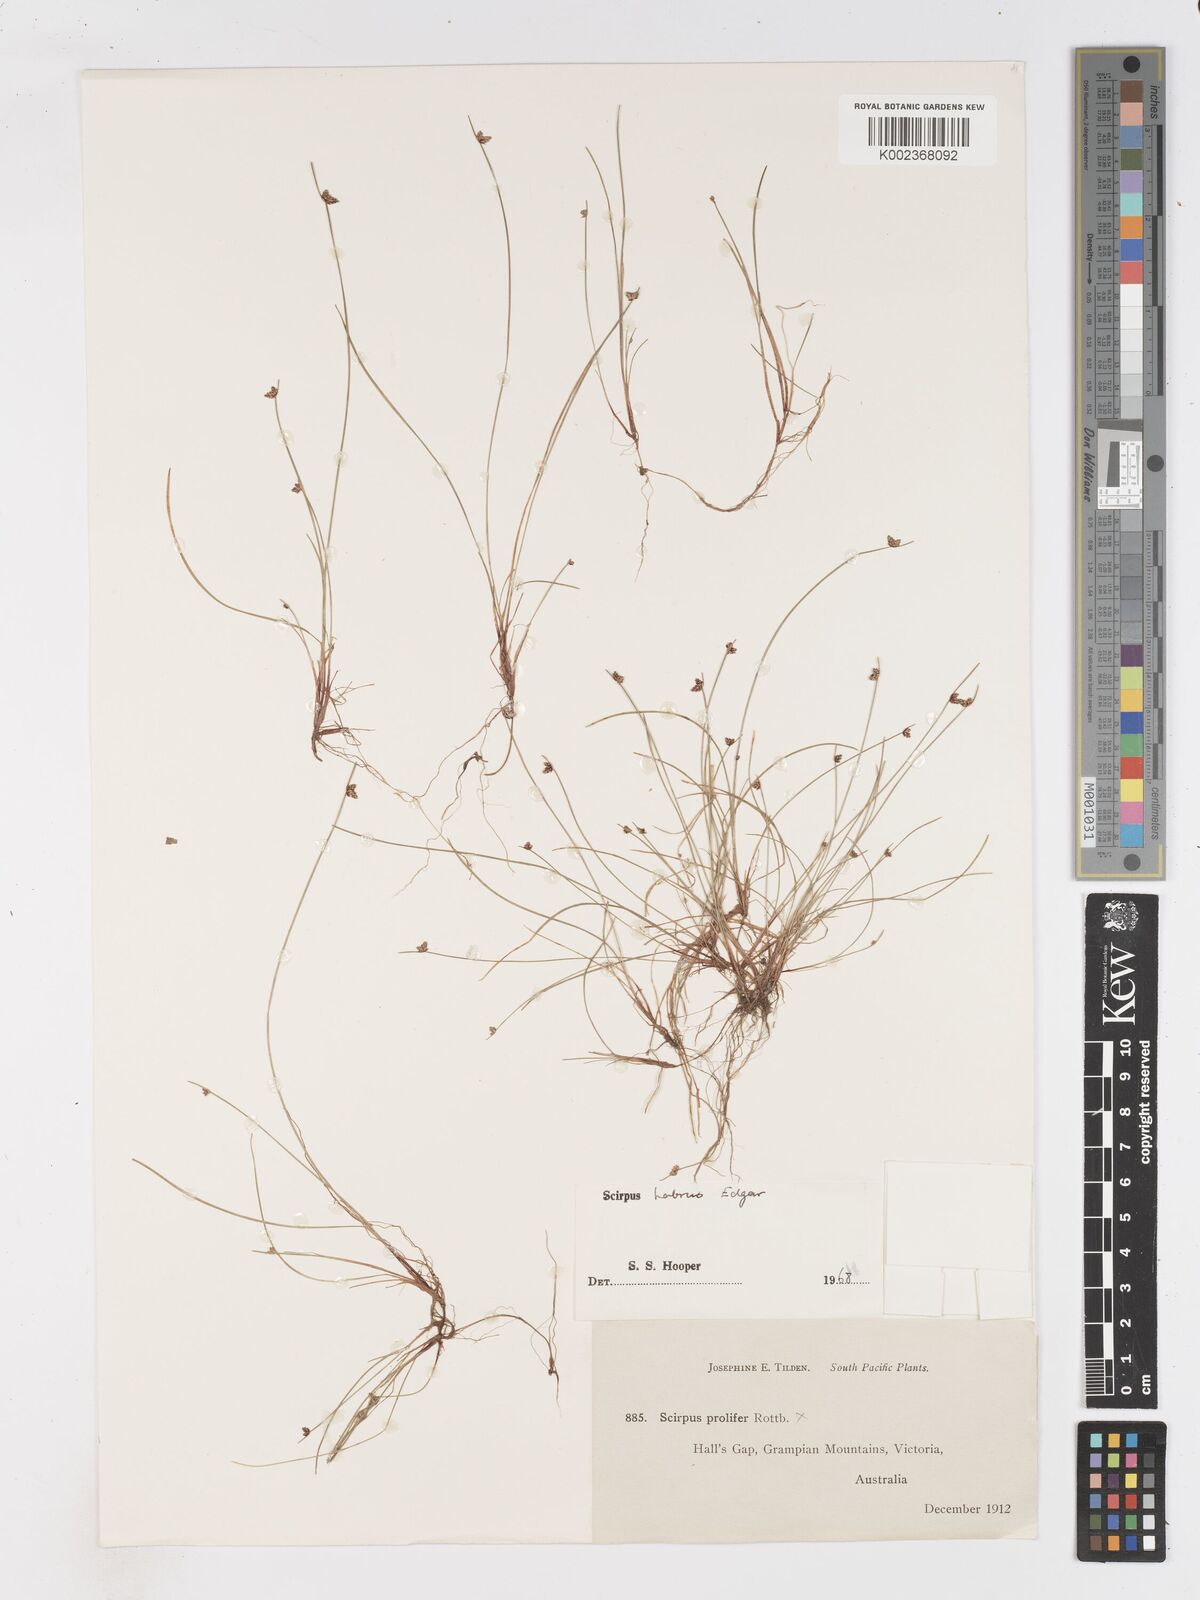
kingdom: Plantae
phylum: Tracheophyta
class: Liliopsida
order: Poales
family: Cyperaceae
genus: Isolepis
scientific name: Isolepis habra
